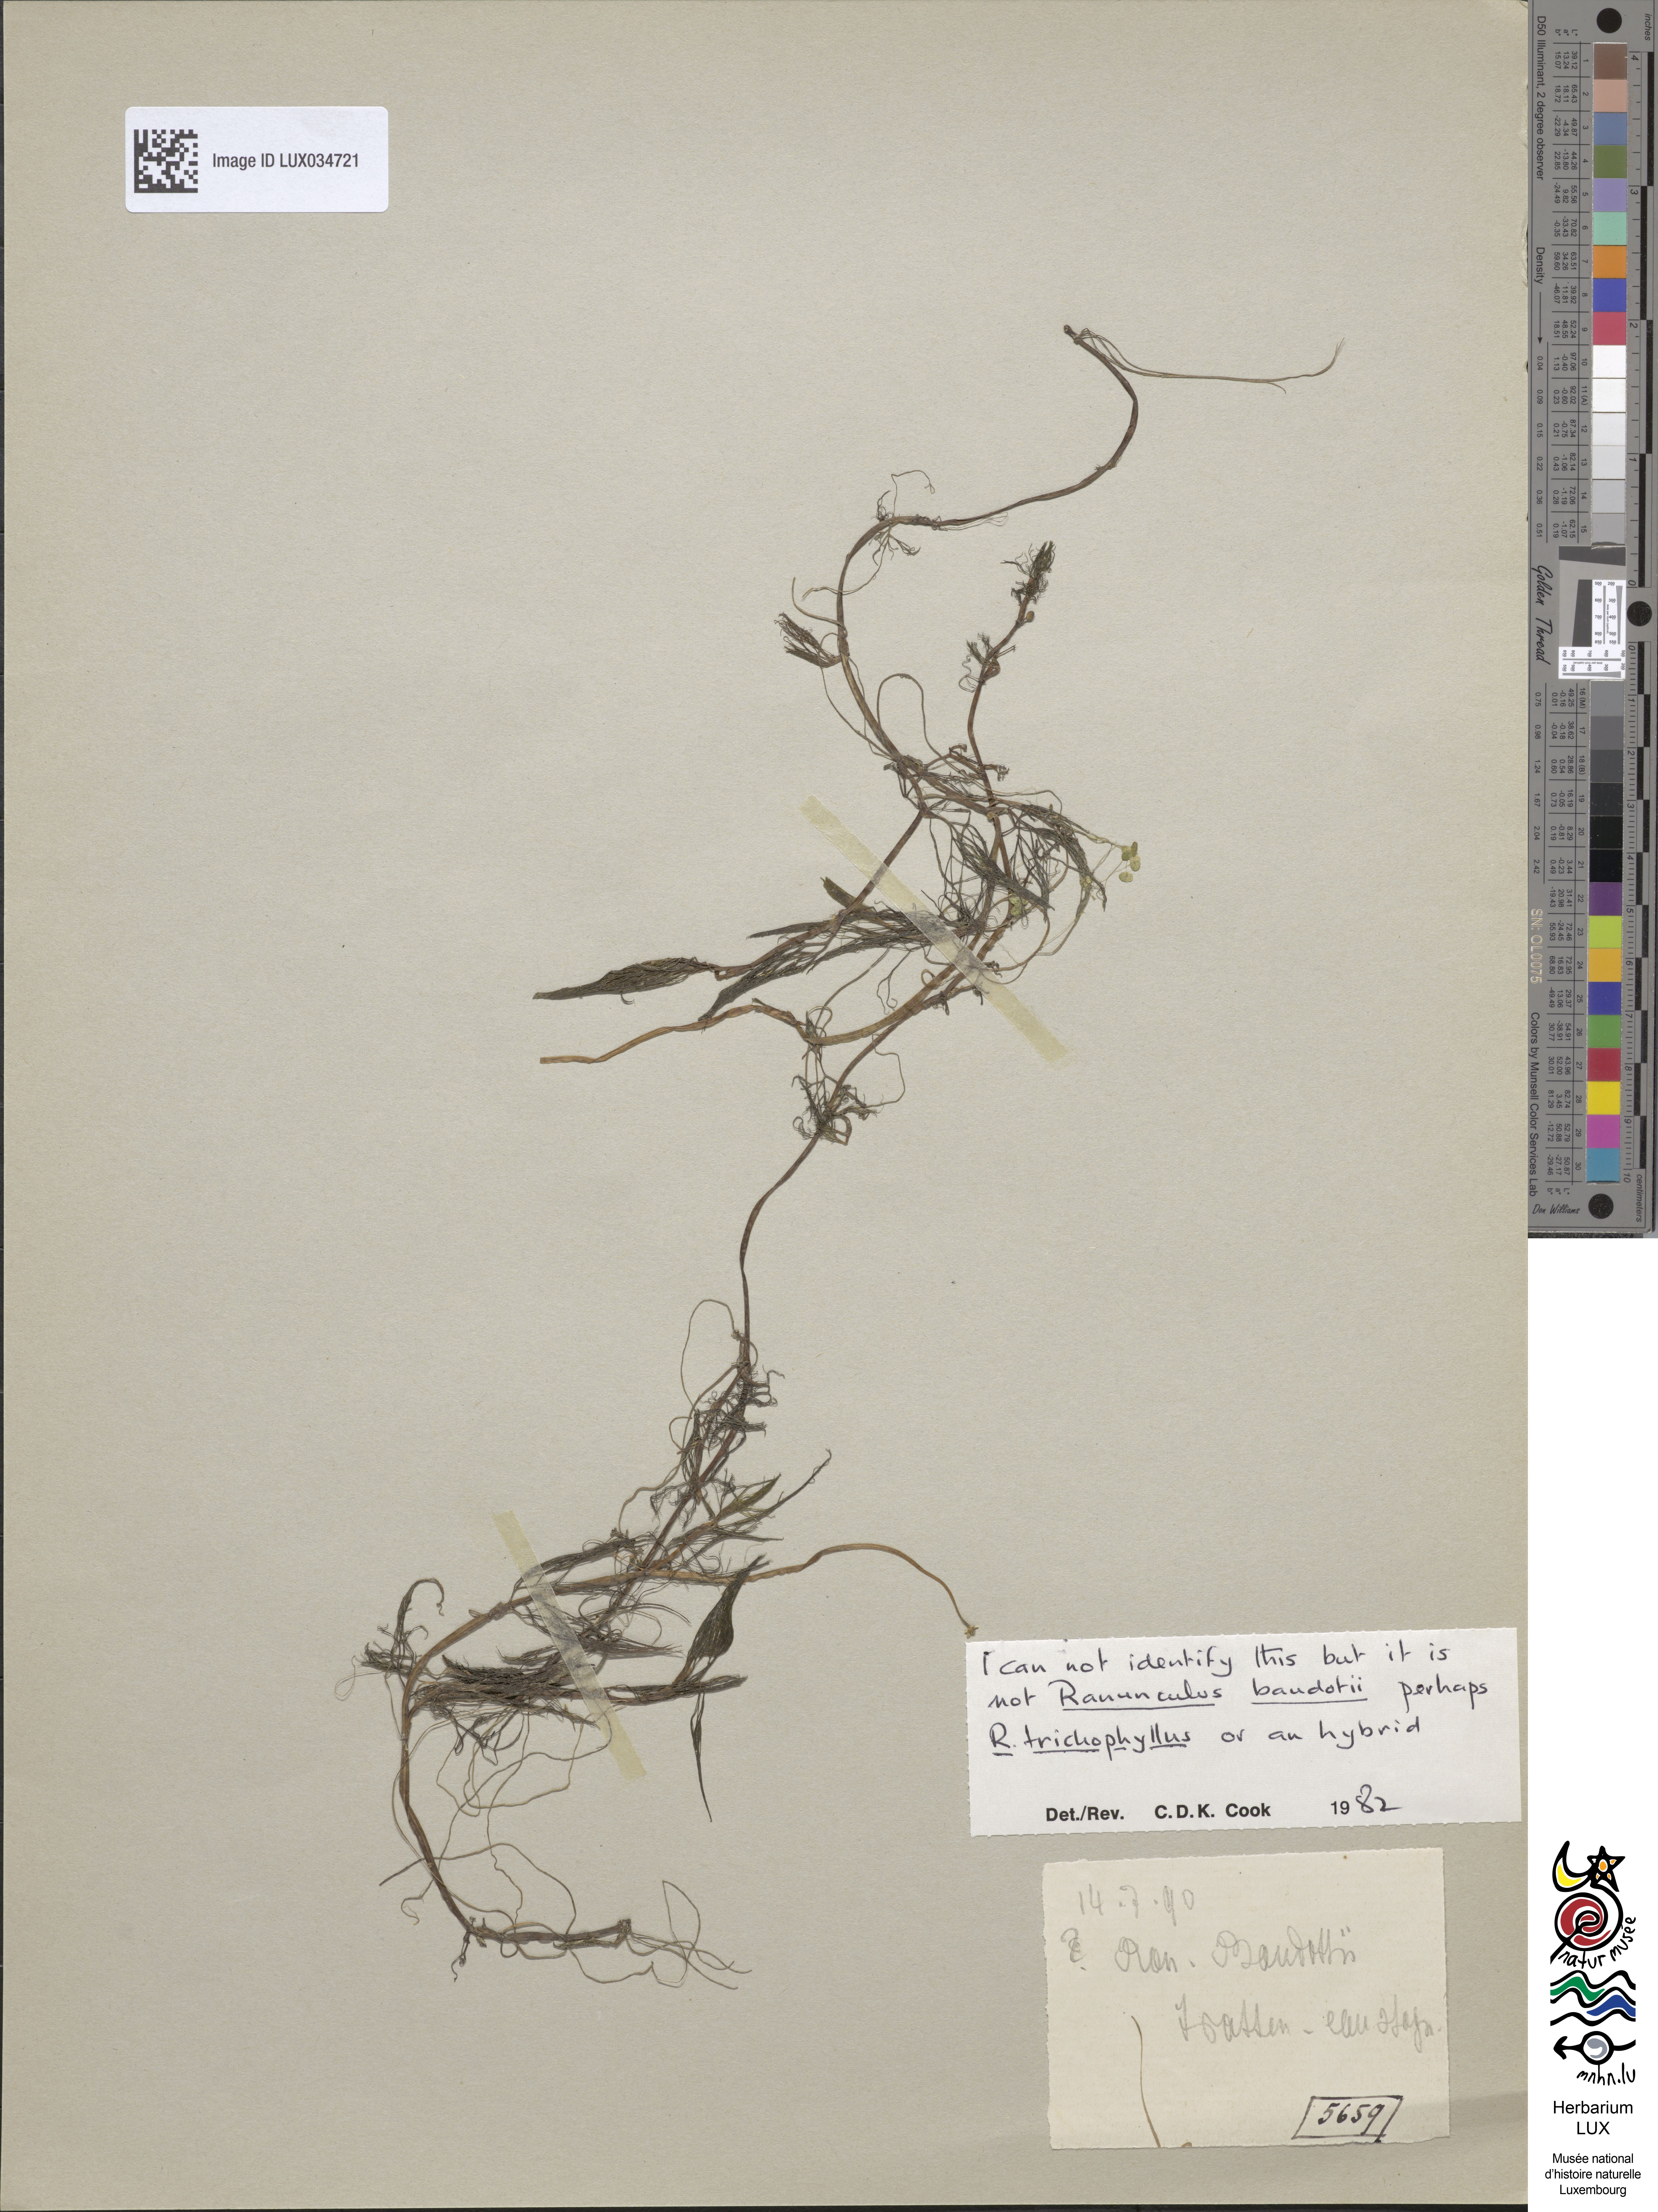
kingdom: Plantae
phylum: Tracheophyta
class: Magnoliopsida
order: Ranunculales
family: Ranunculaceae
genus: Ranunculus
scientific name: Ranunculus peltatus
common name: Pond water-crowfoot
